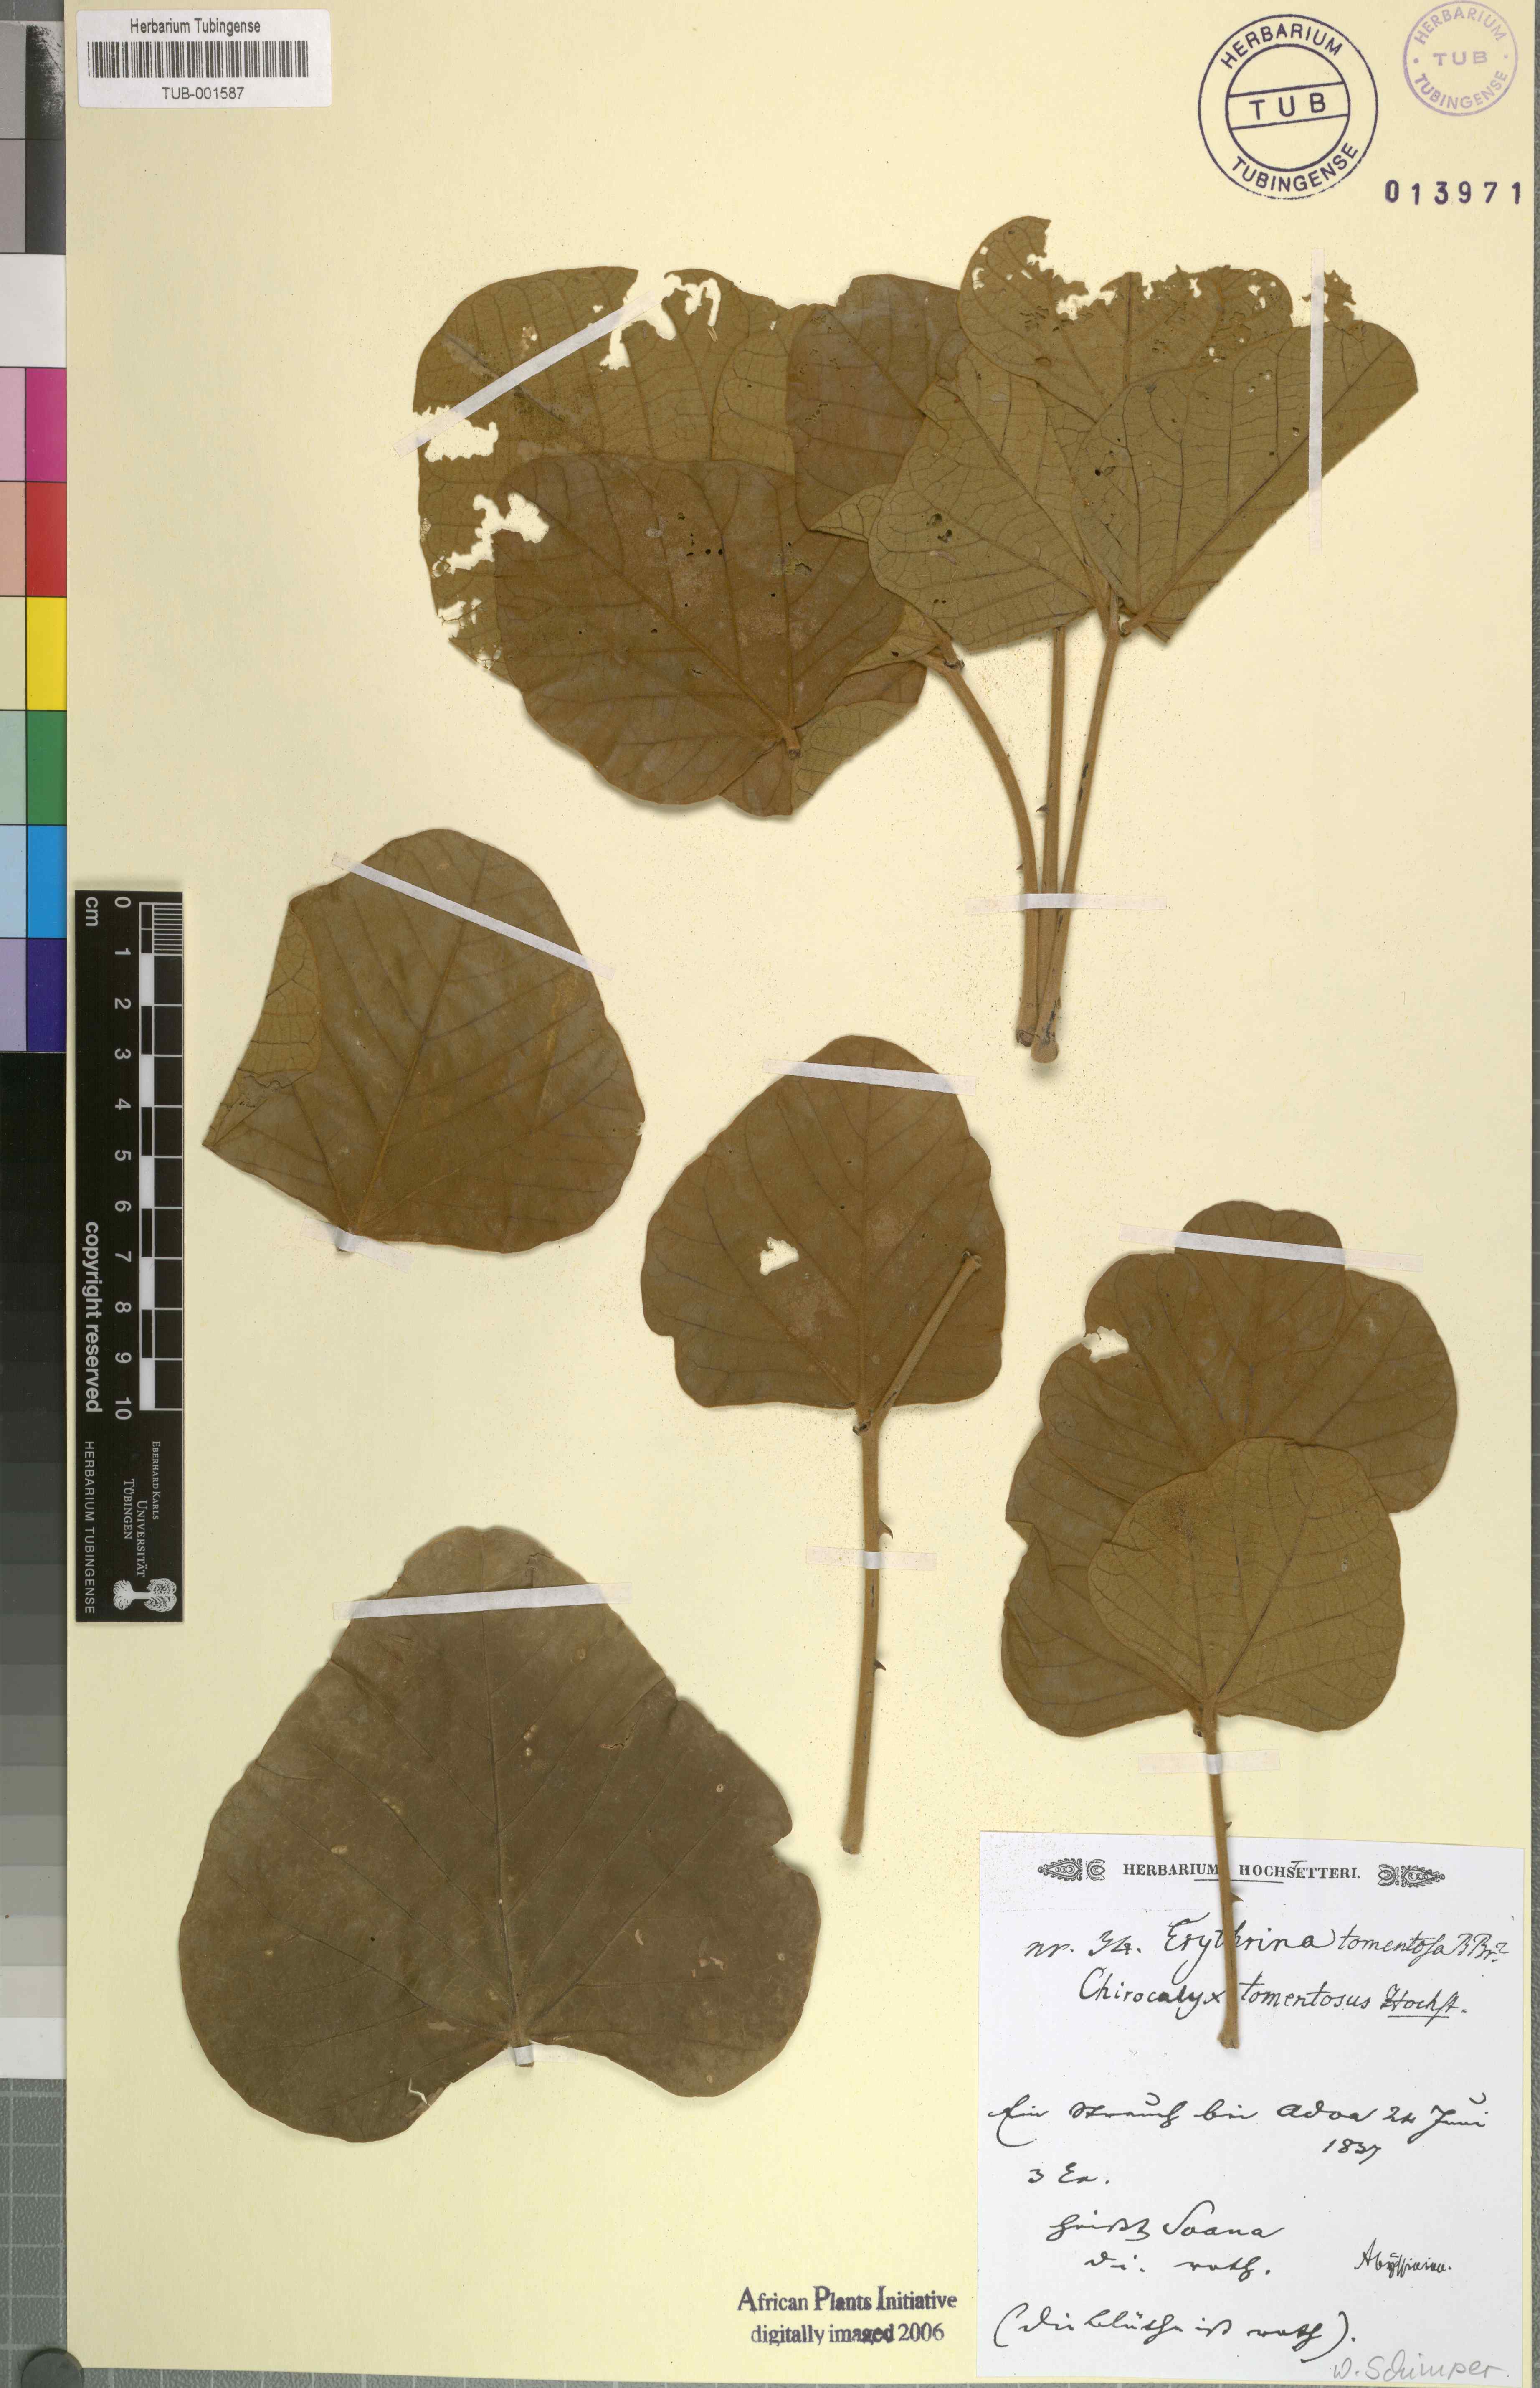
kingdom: Plantae
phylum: Tracheophyta
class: Magnoliopsida
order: Fabales
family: Fabaceae
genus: Erythrina
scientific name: Erythrina abyssinica
